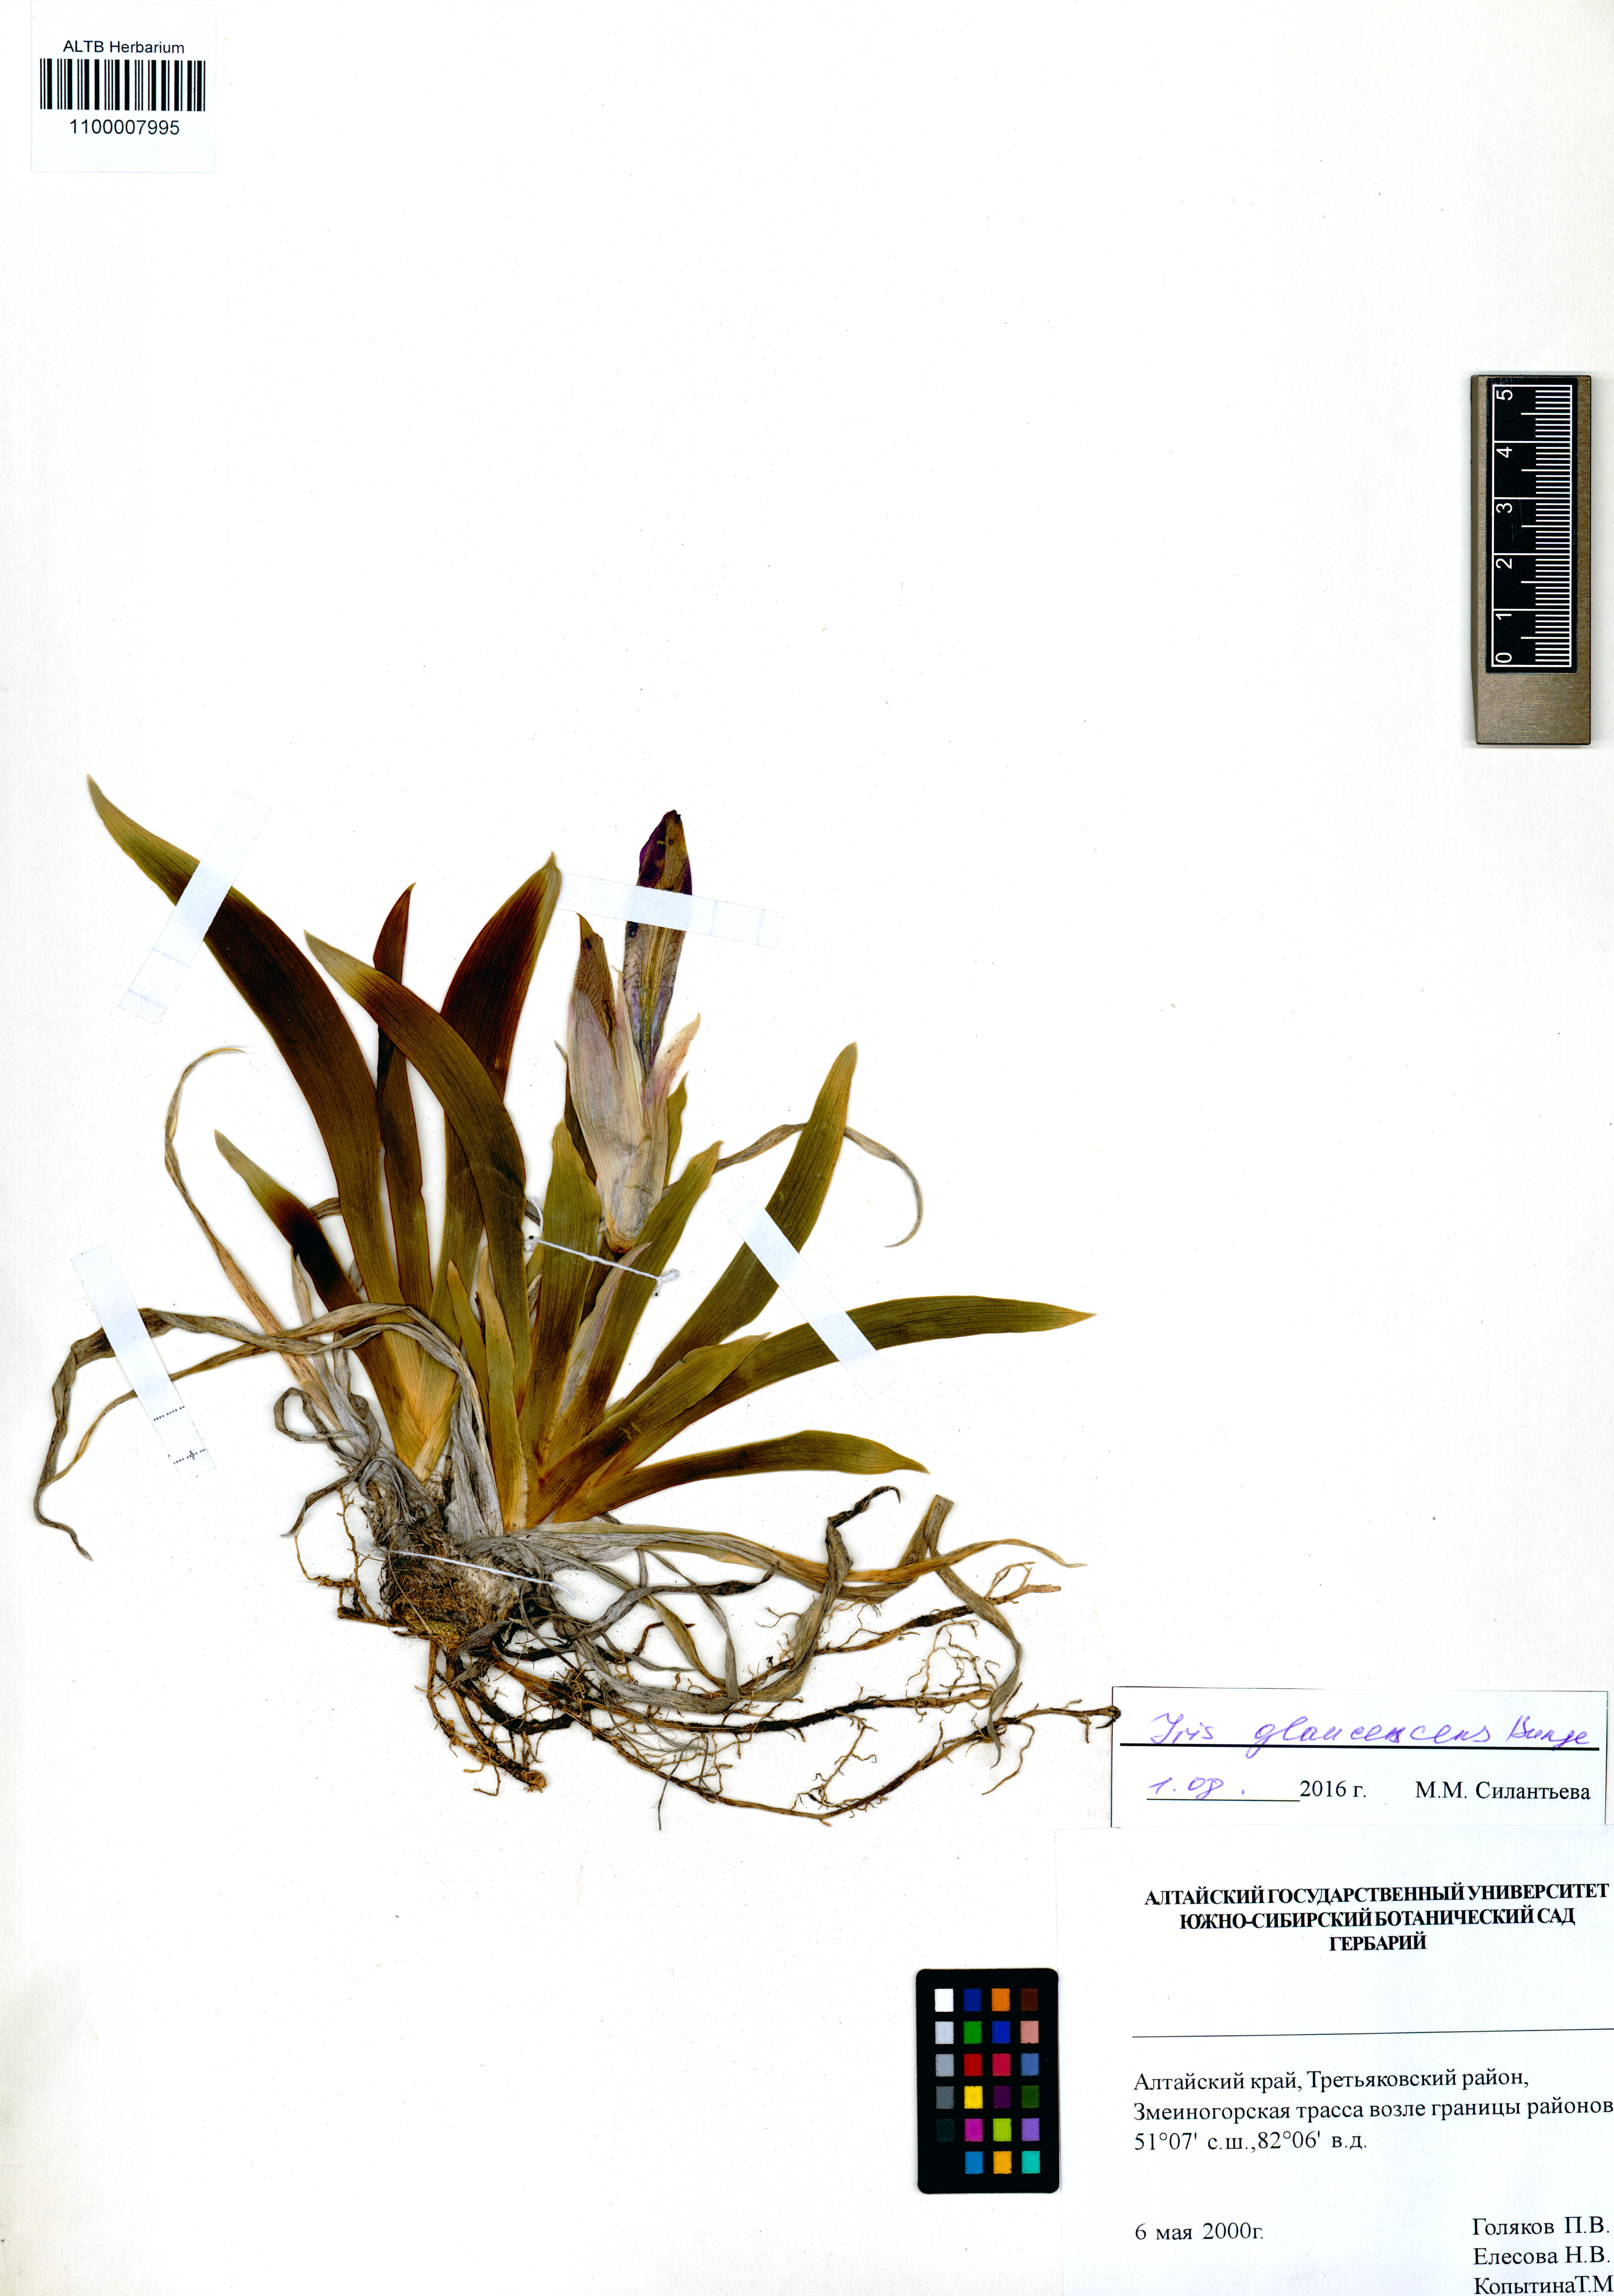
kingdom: Plantae
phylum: Tracheophyta
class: Liliopsida
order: Asparagales
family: Iridaceae
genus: Iris
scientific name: Iris glaucescens
